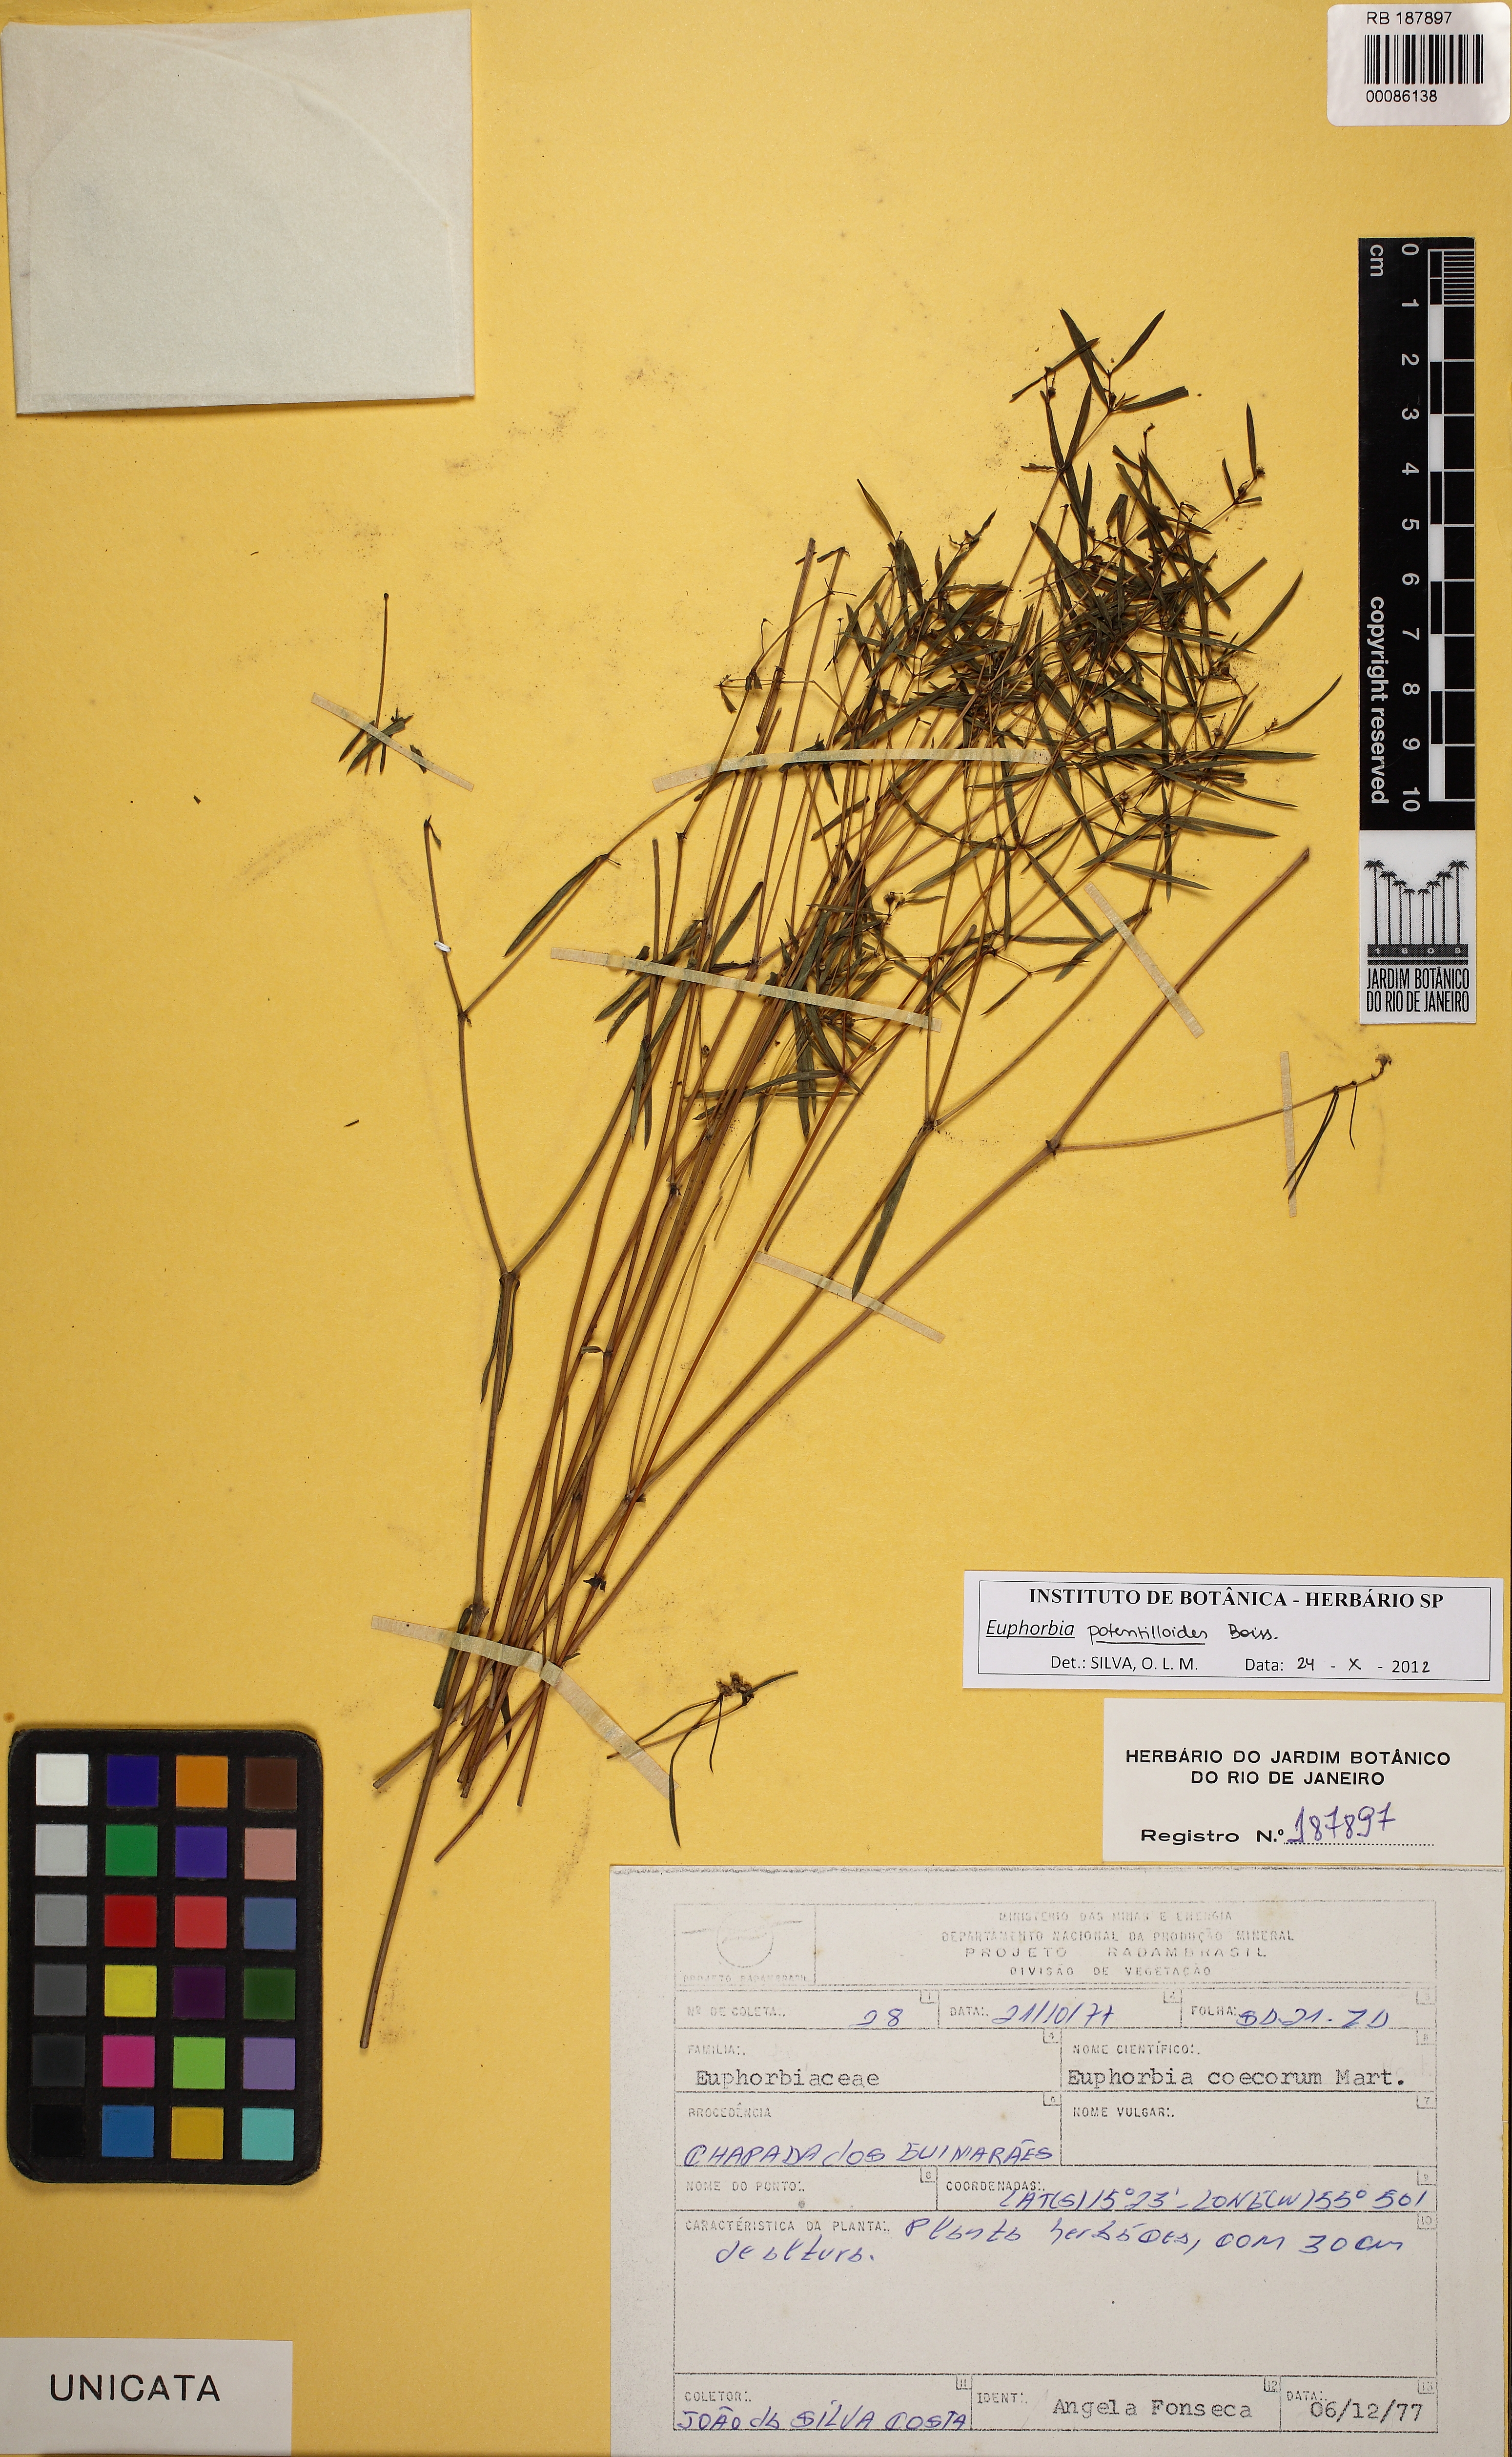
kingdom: Plantae
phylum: Tracheophyta
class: Magnoliopsida
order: Malpighiales
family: Euphorbiaceae
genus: Euphorbia
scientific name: Euphorbia potentilloides
